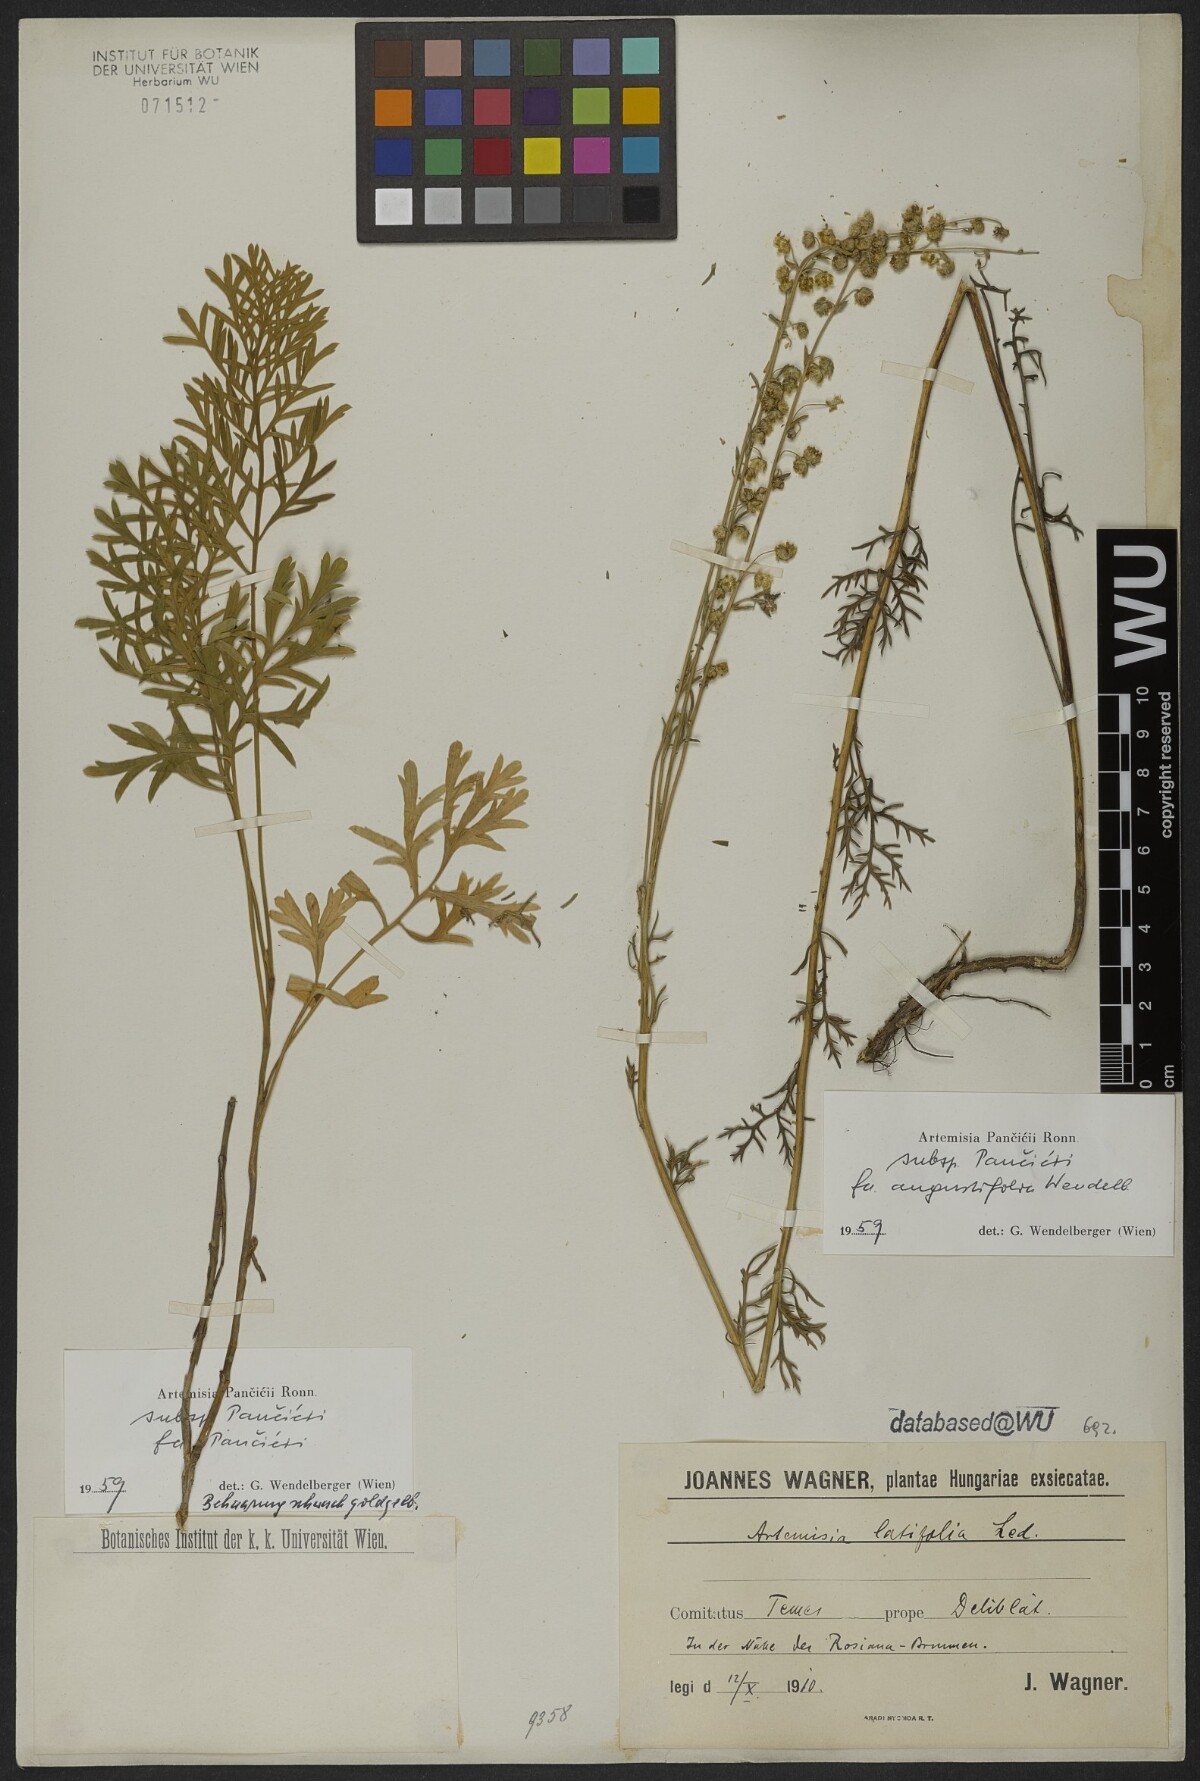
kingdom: Plantae
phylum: Tracheophyta
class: Magnoliopsida
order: Asterales
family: Asteraceae
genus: Artemisia
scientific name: Artemisia pancicii
